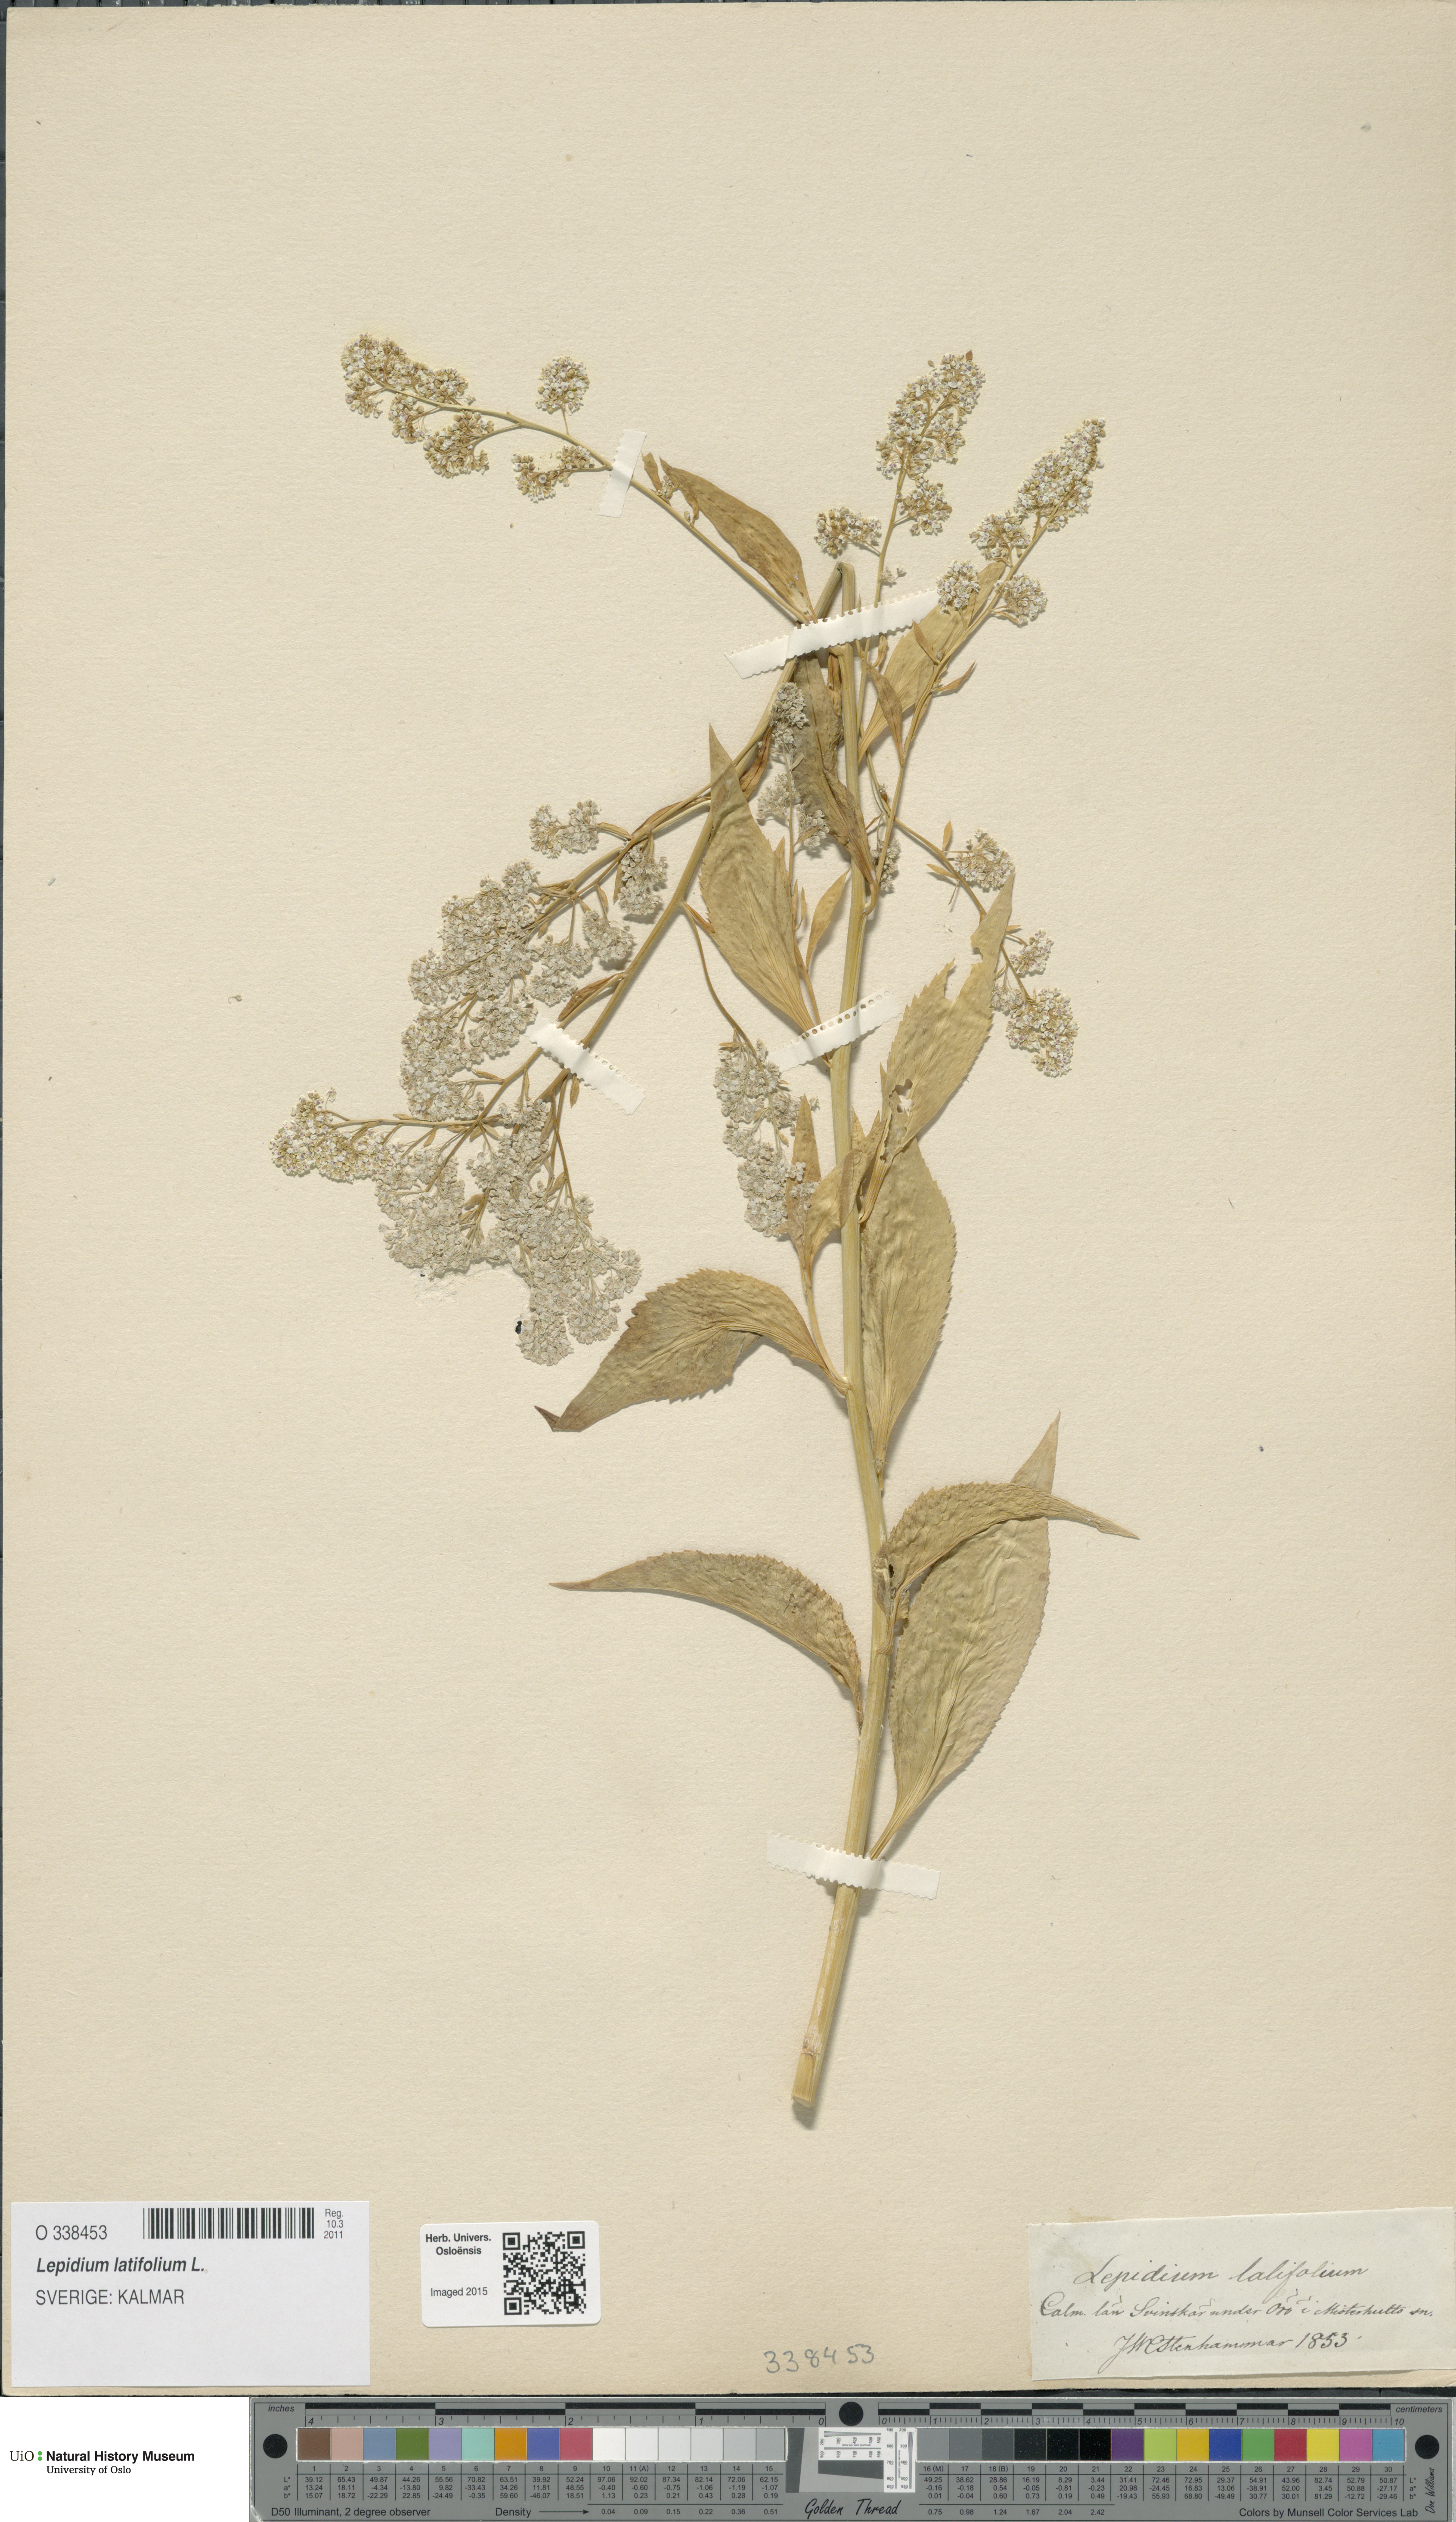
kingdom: Plantae
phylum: Tracheophyta
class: Magnoliopsida
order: Brassicales
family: Brassicaceae
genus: Lepidium
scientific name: Lepidium latifolium
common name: Dittander
